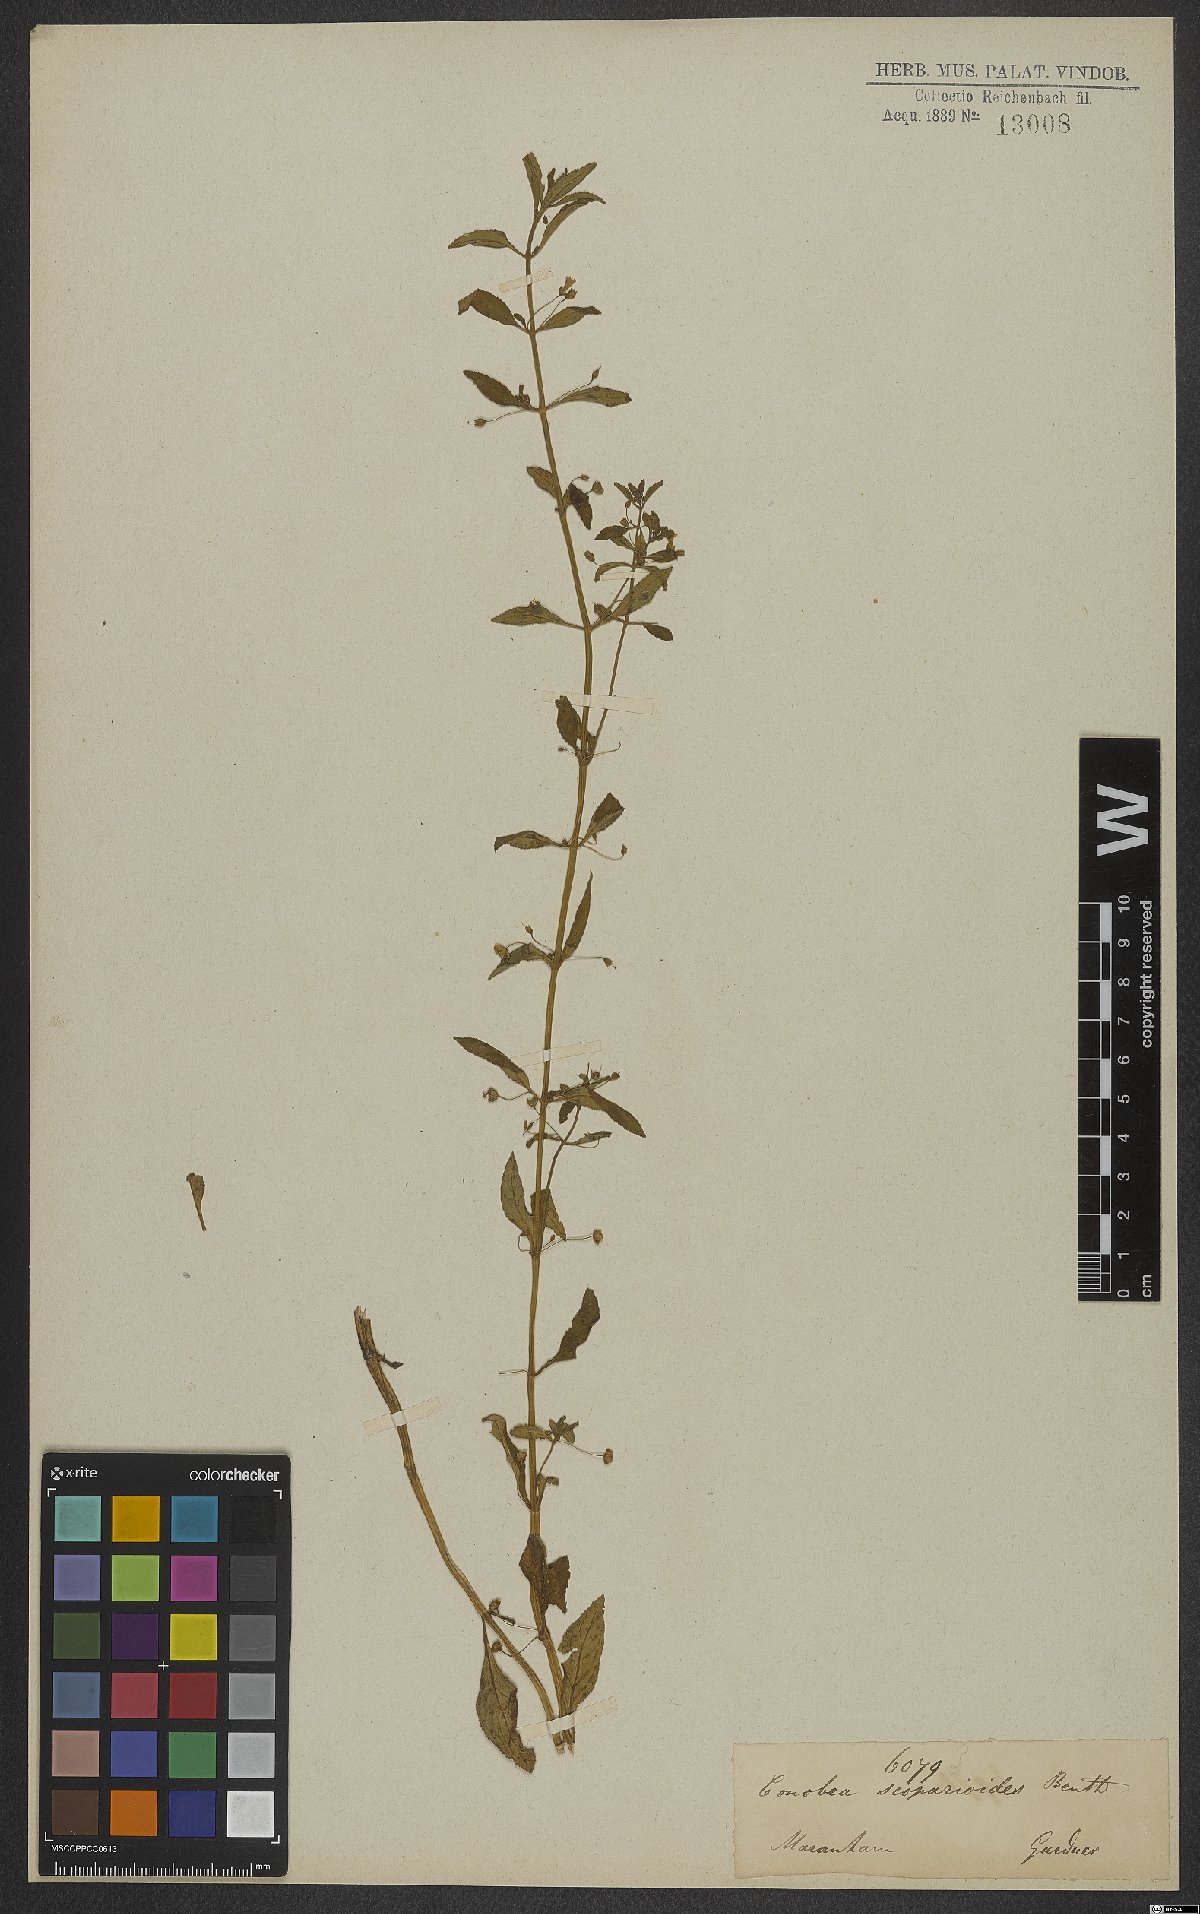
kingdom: Plantae
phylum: Tracheophyta
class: Magnoliopsida
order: Lamiales
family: Plantaginaceae
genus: Conobea
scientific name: Conobea scoparioides
